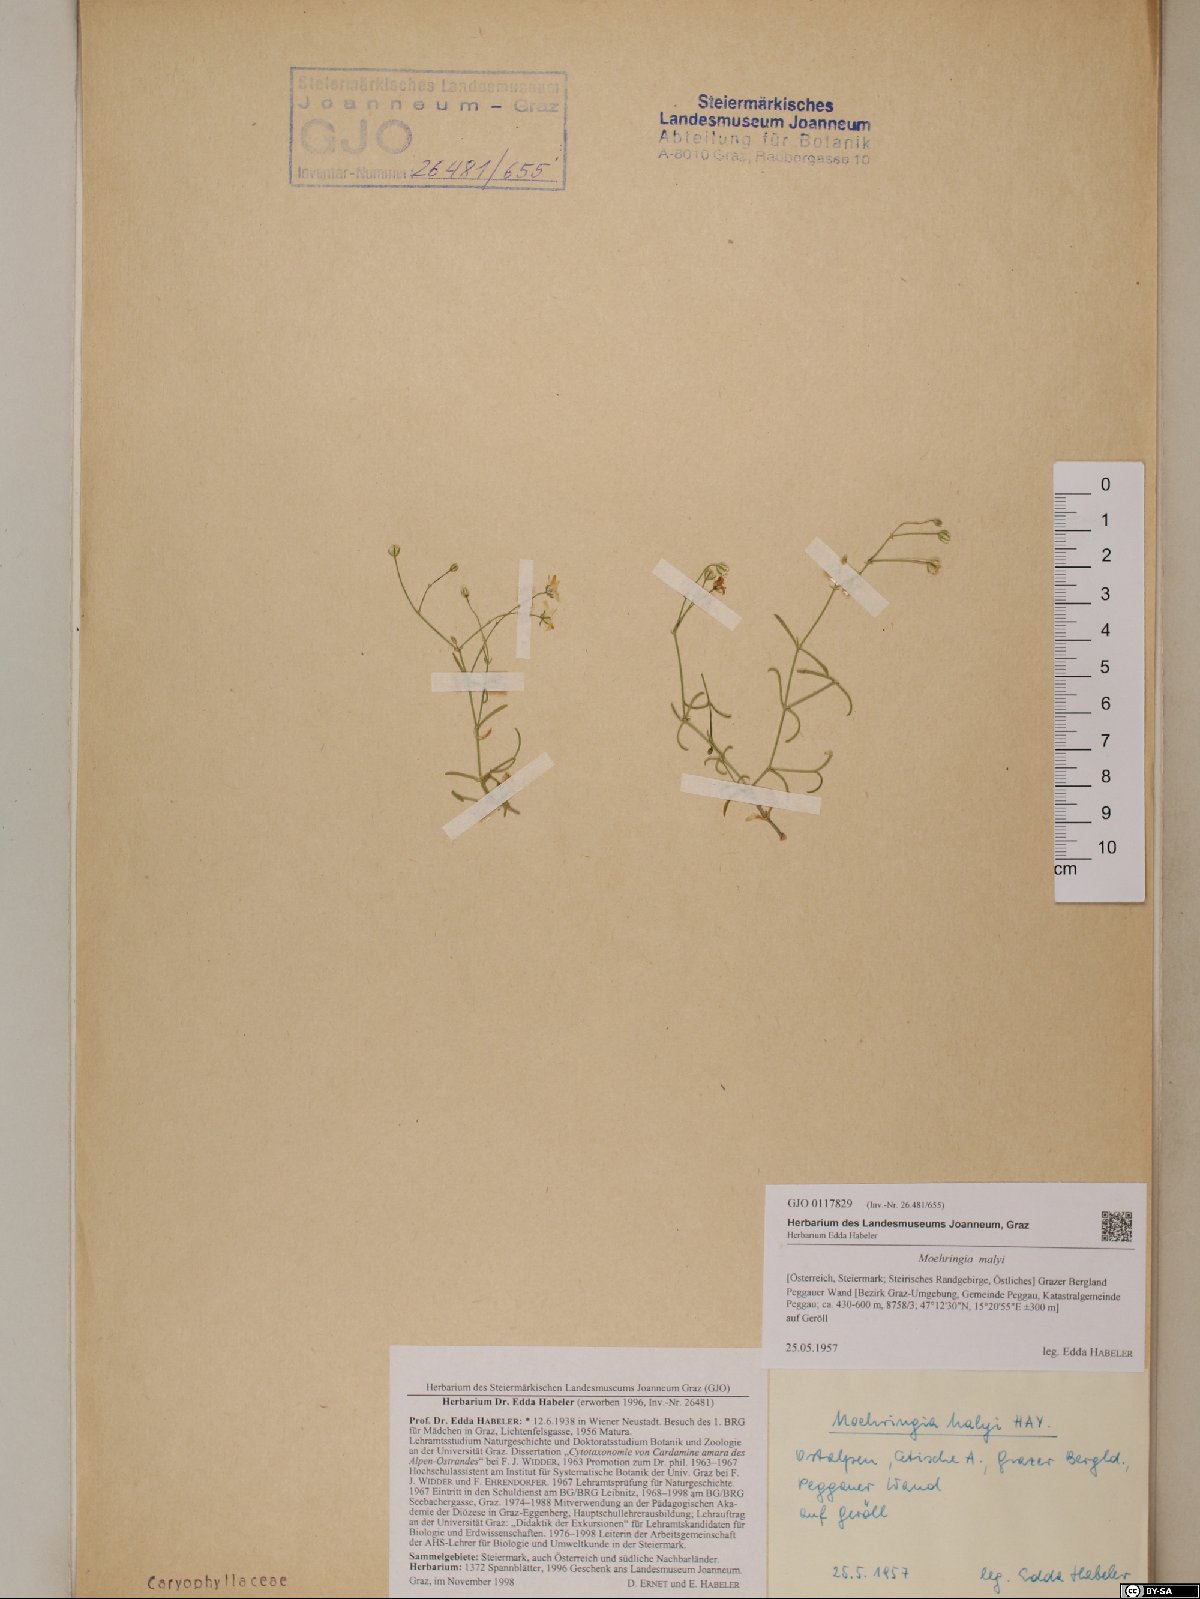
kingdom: Plantae
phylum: Tracheophyta
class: Magnoliopsida
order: Caryophyllales
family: Caryophyllaceae
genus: Moehringia
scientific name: Moehringia bavarica
